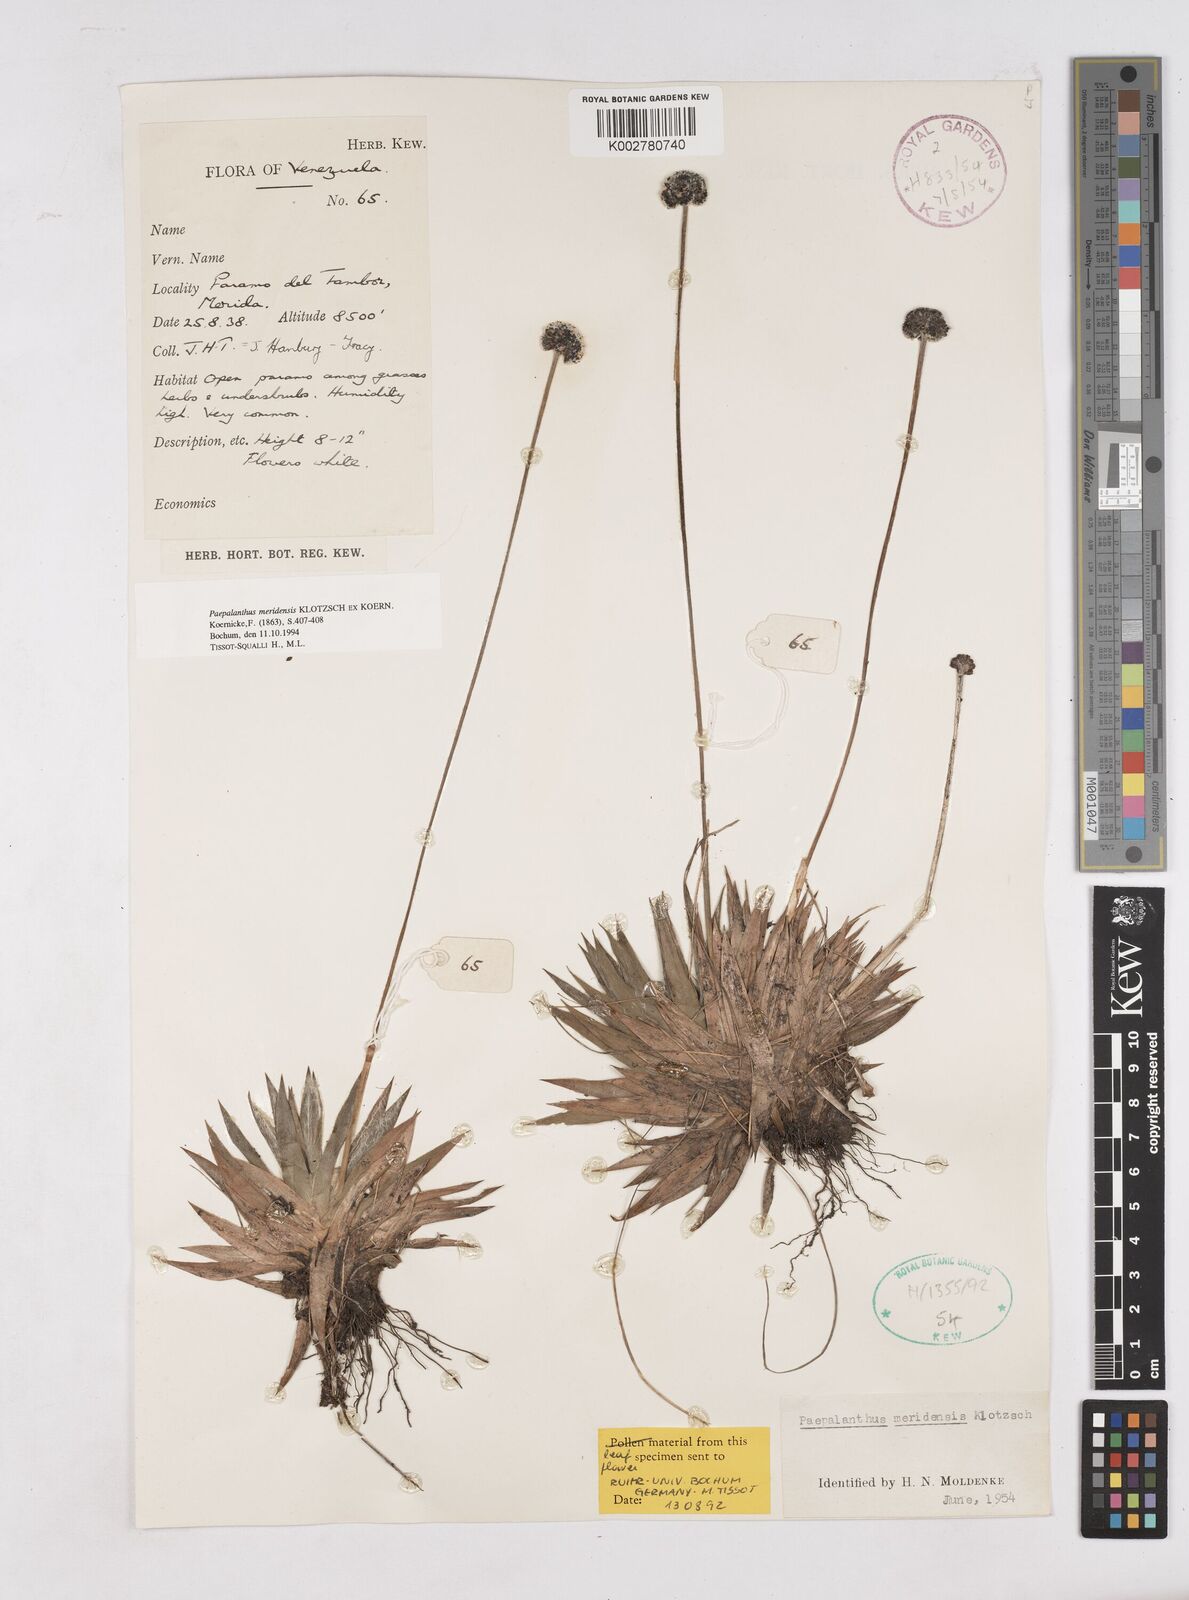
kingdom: Plantae
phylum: Tracheophyta
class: Liliopsida
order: Poales
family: Eriocaulaceae
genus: Paepalanthus
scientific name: Paepalanthus meridensis
